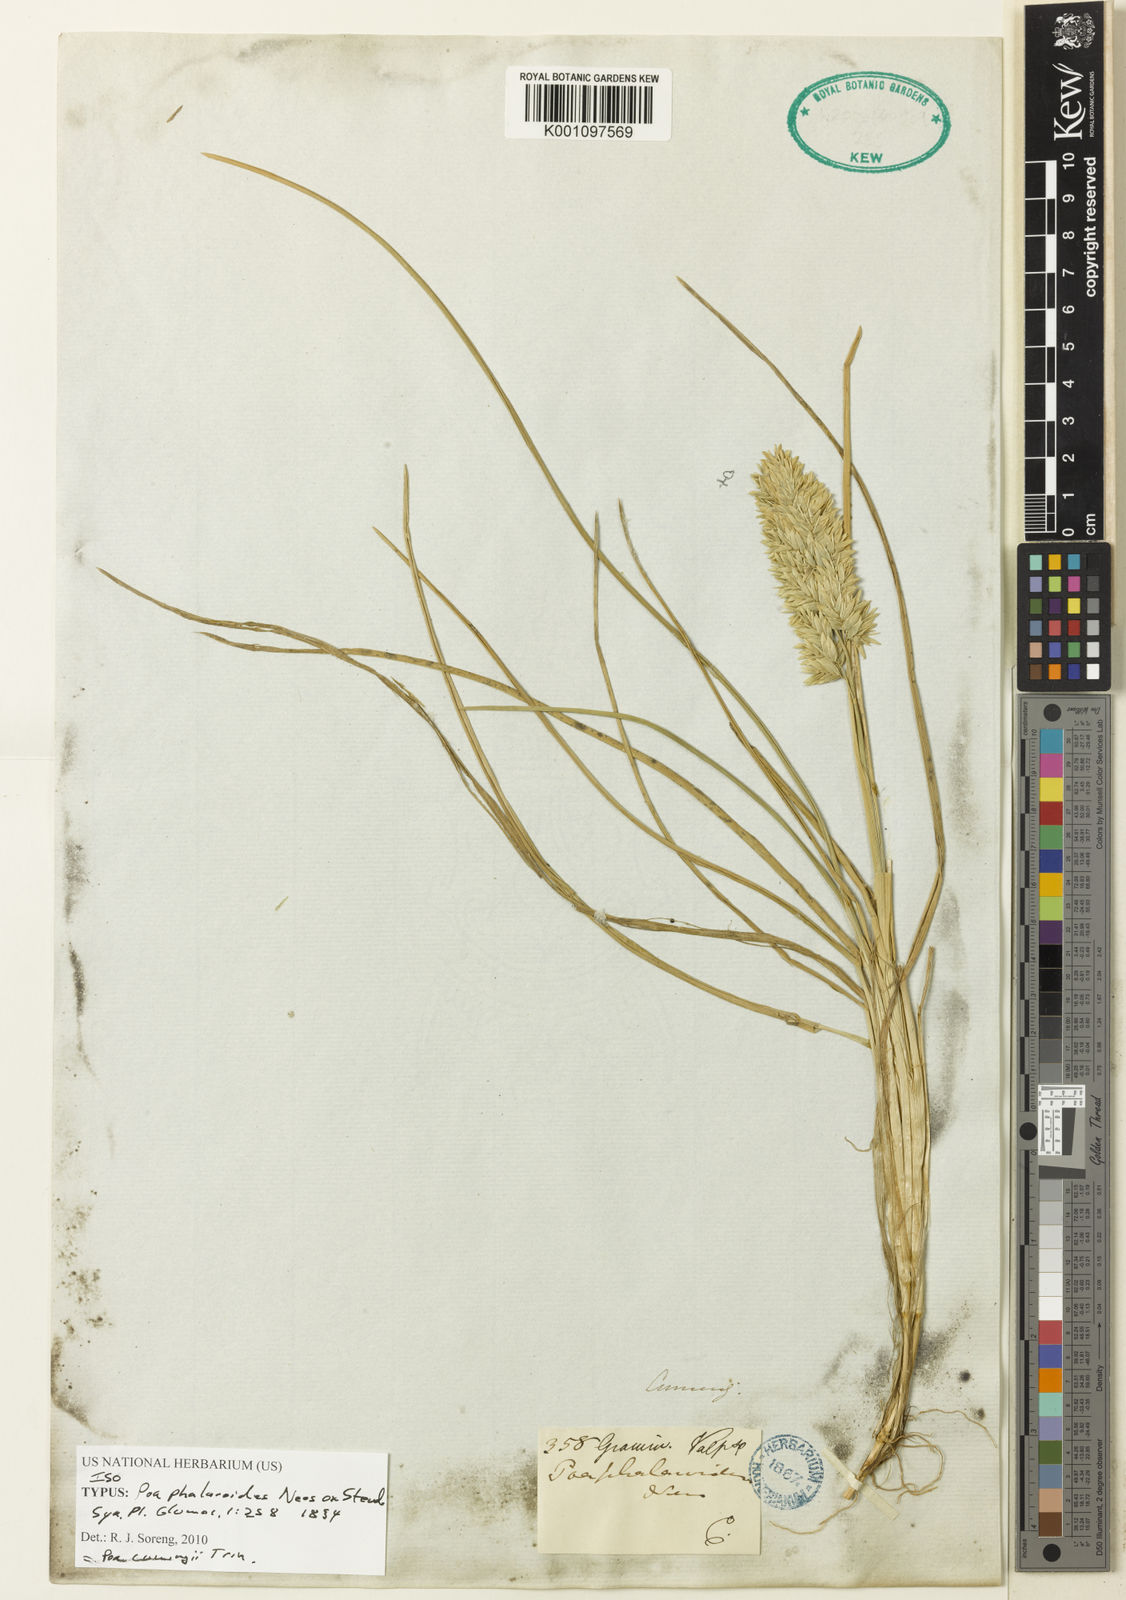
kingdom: Plantae
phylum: Tracheophyta
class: Liliopsida
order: Poales
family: Poaceae
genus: Poa
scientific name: Poa cumingii
